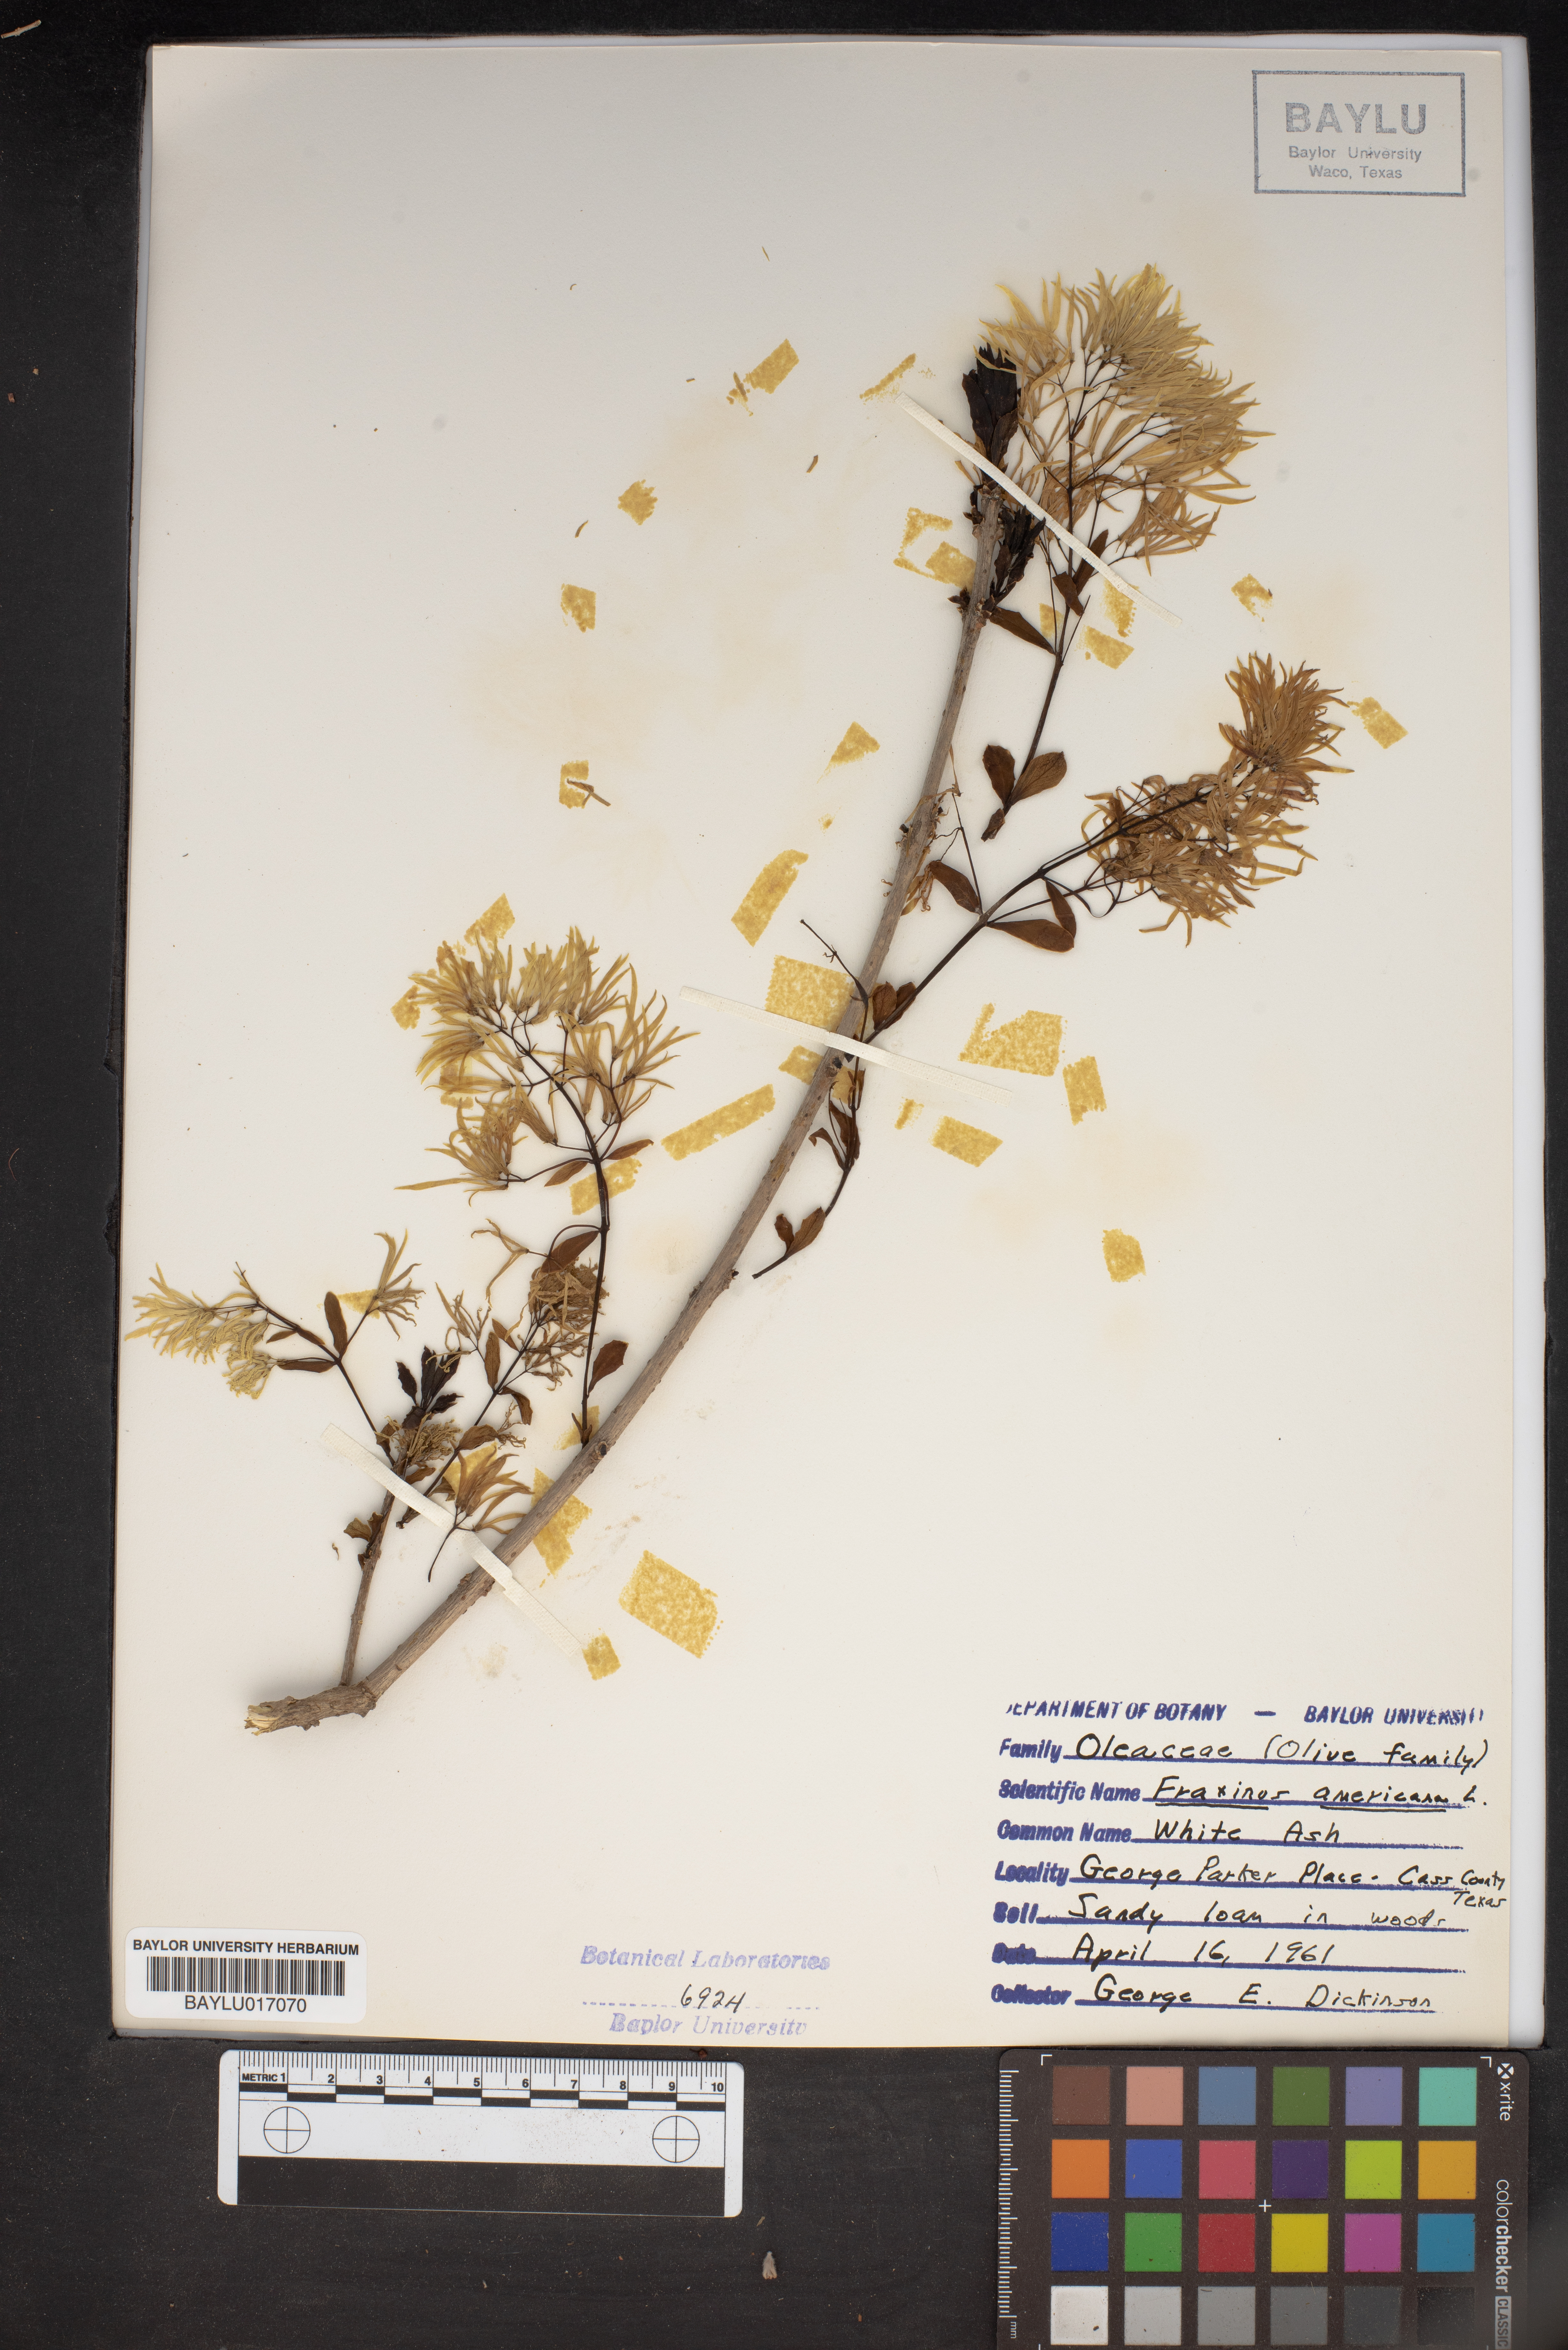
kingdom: Plantae
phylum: Tracheophyta
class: Magnoliopsida
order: Lamiales
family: Oleaceae
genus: Fraxinus
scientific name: Fraxinus americana
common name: White ash
